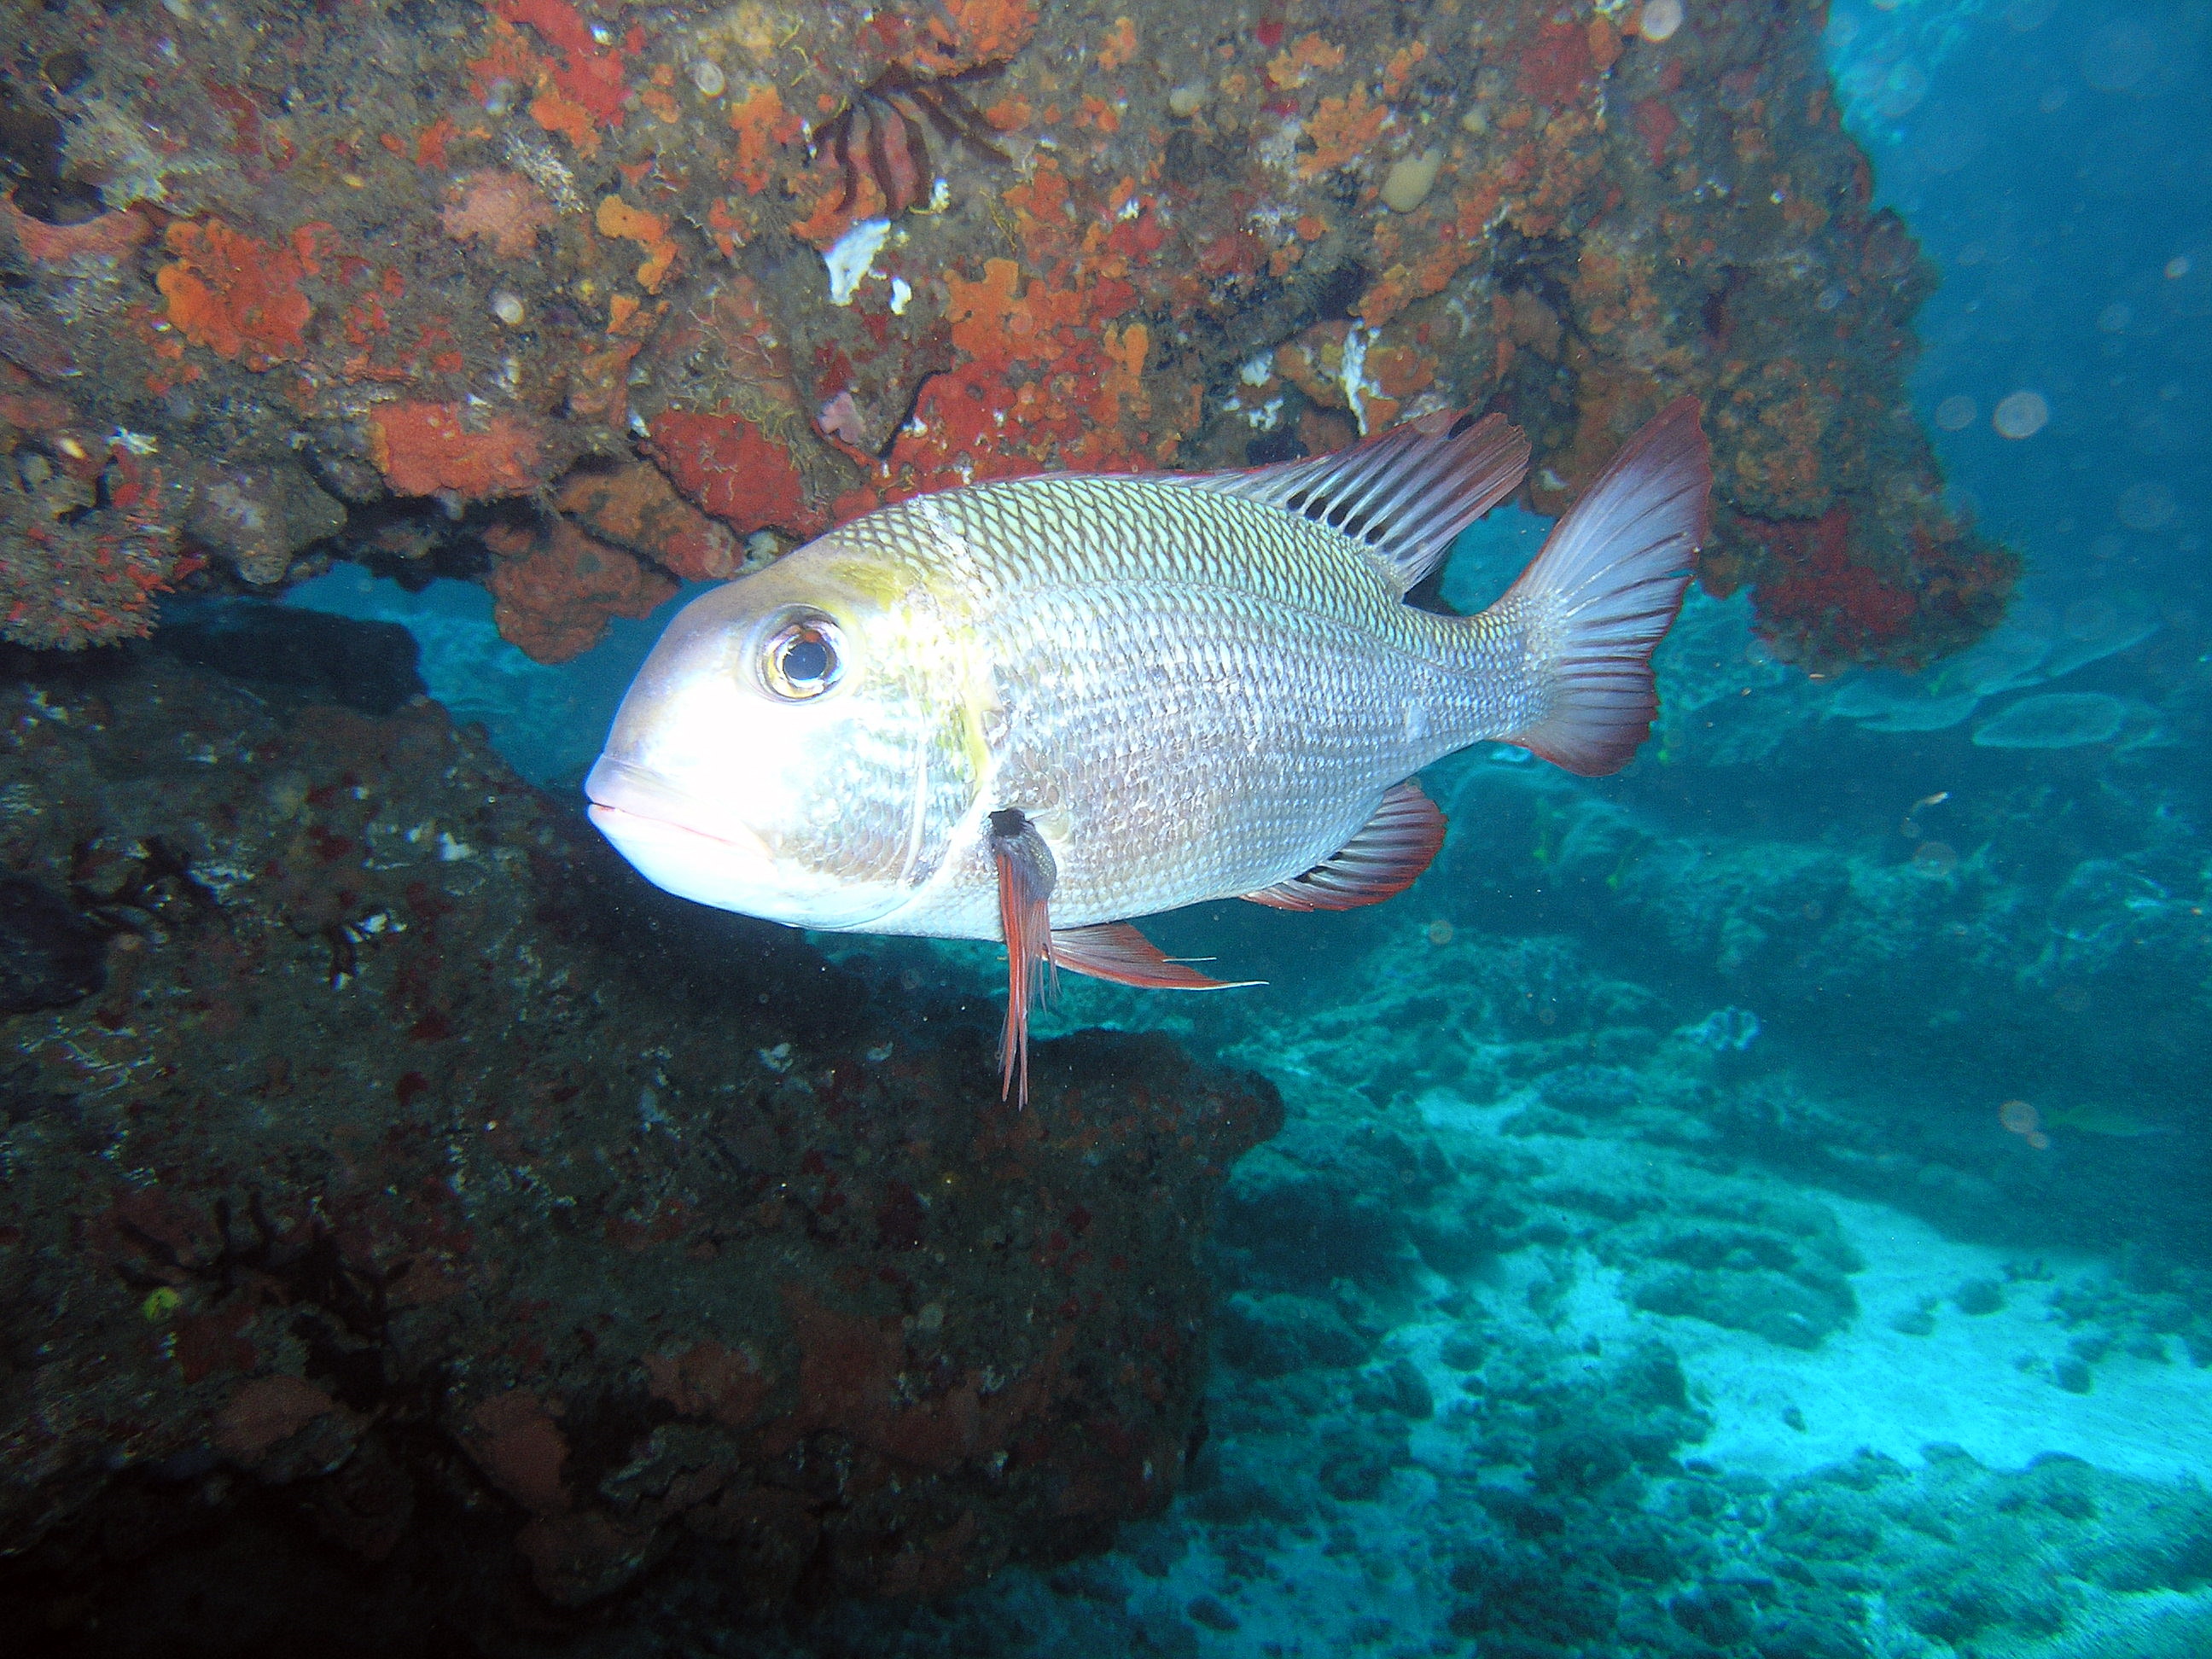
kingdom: Animalia
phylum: Chordata
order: Perciformes
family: Lethrinidae
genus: Monotaxis
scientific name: Monotaxis grandoculis
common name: Bigeye emperor
